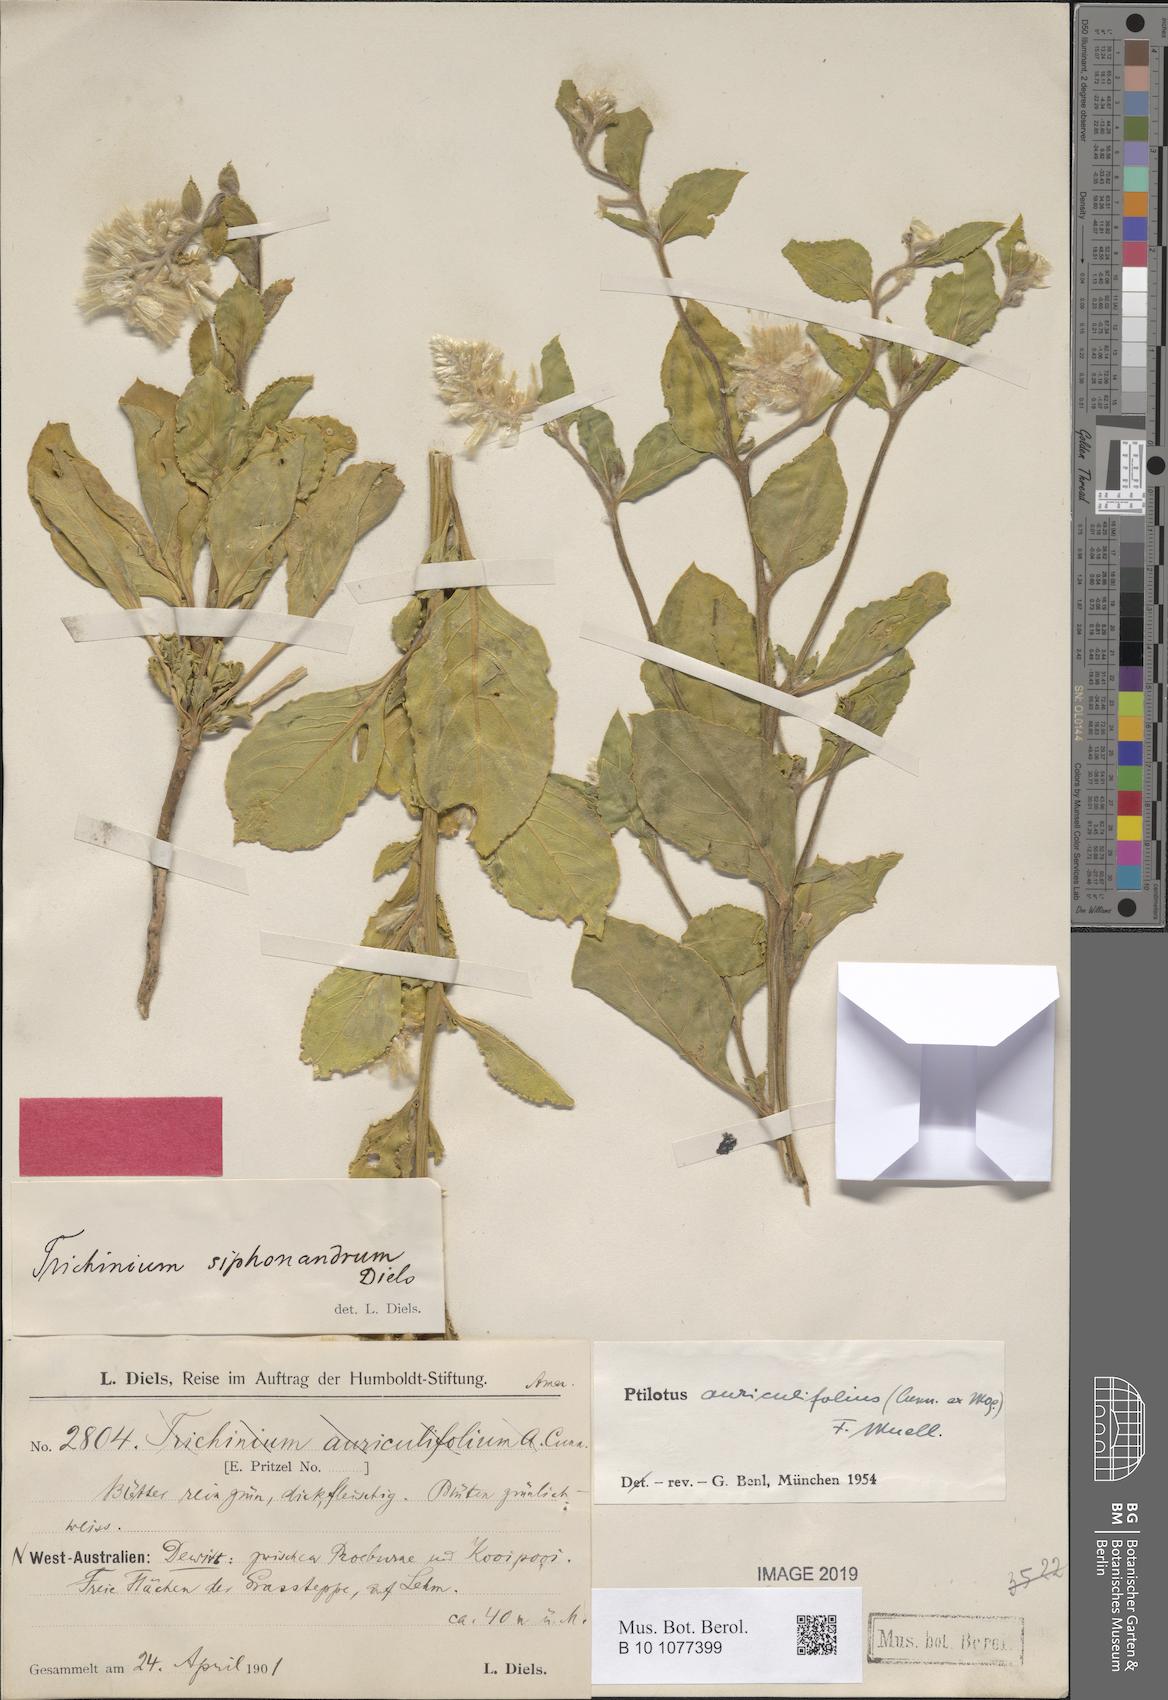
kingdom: Plantae
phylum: Tracheophyta
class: Magnoliopsida
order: Caryophyllales
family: Amaranthaceae
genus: Ptilotus
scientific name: Ptilotus auriculifolius
